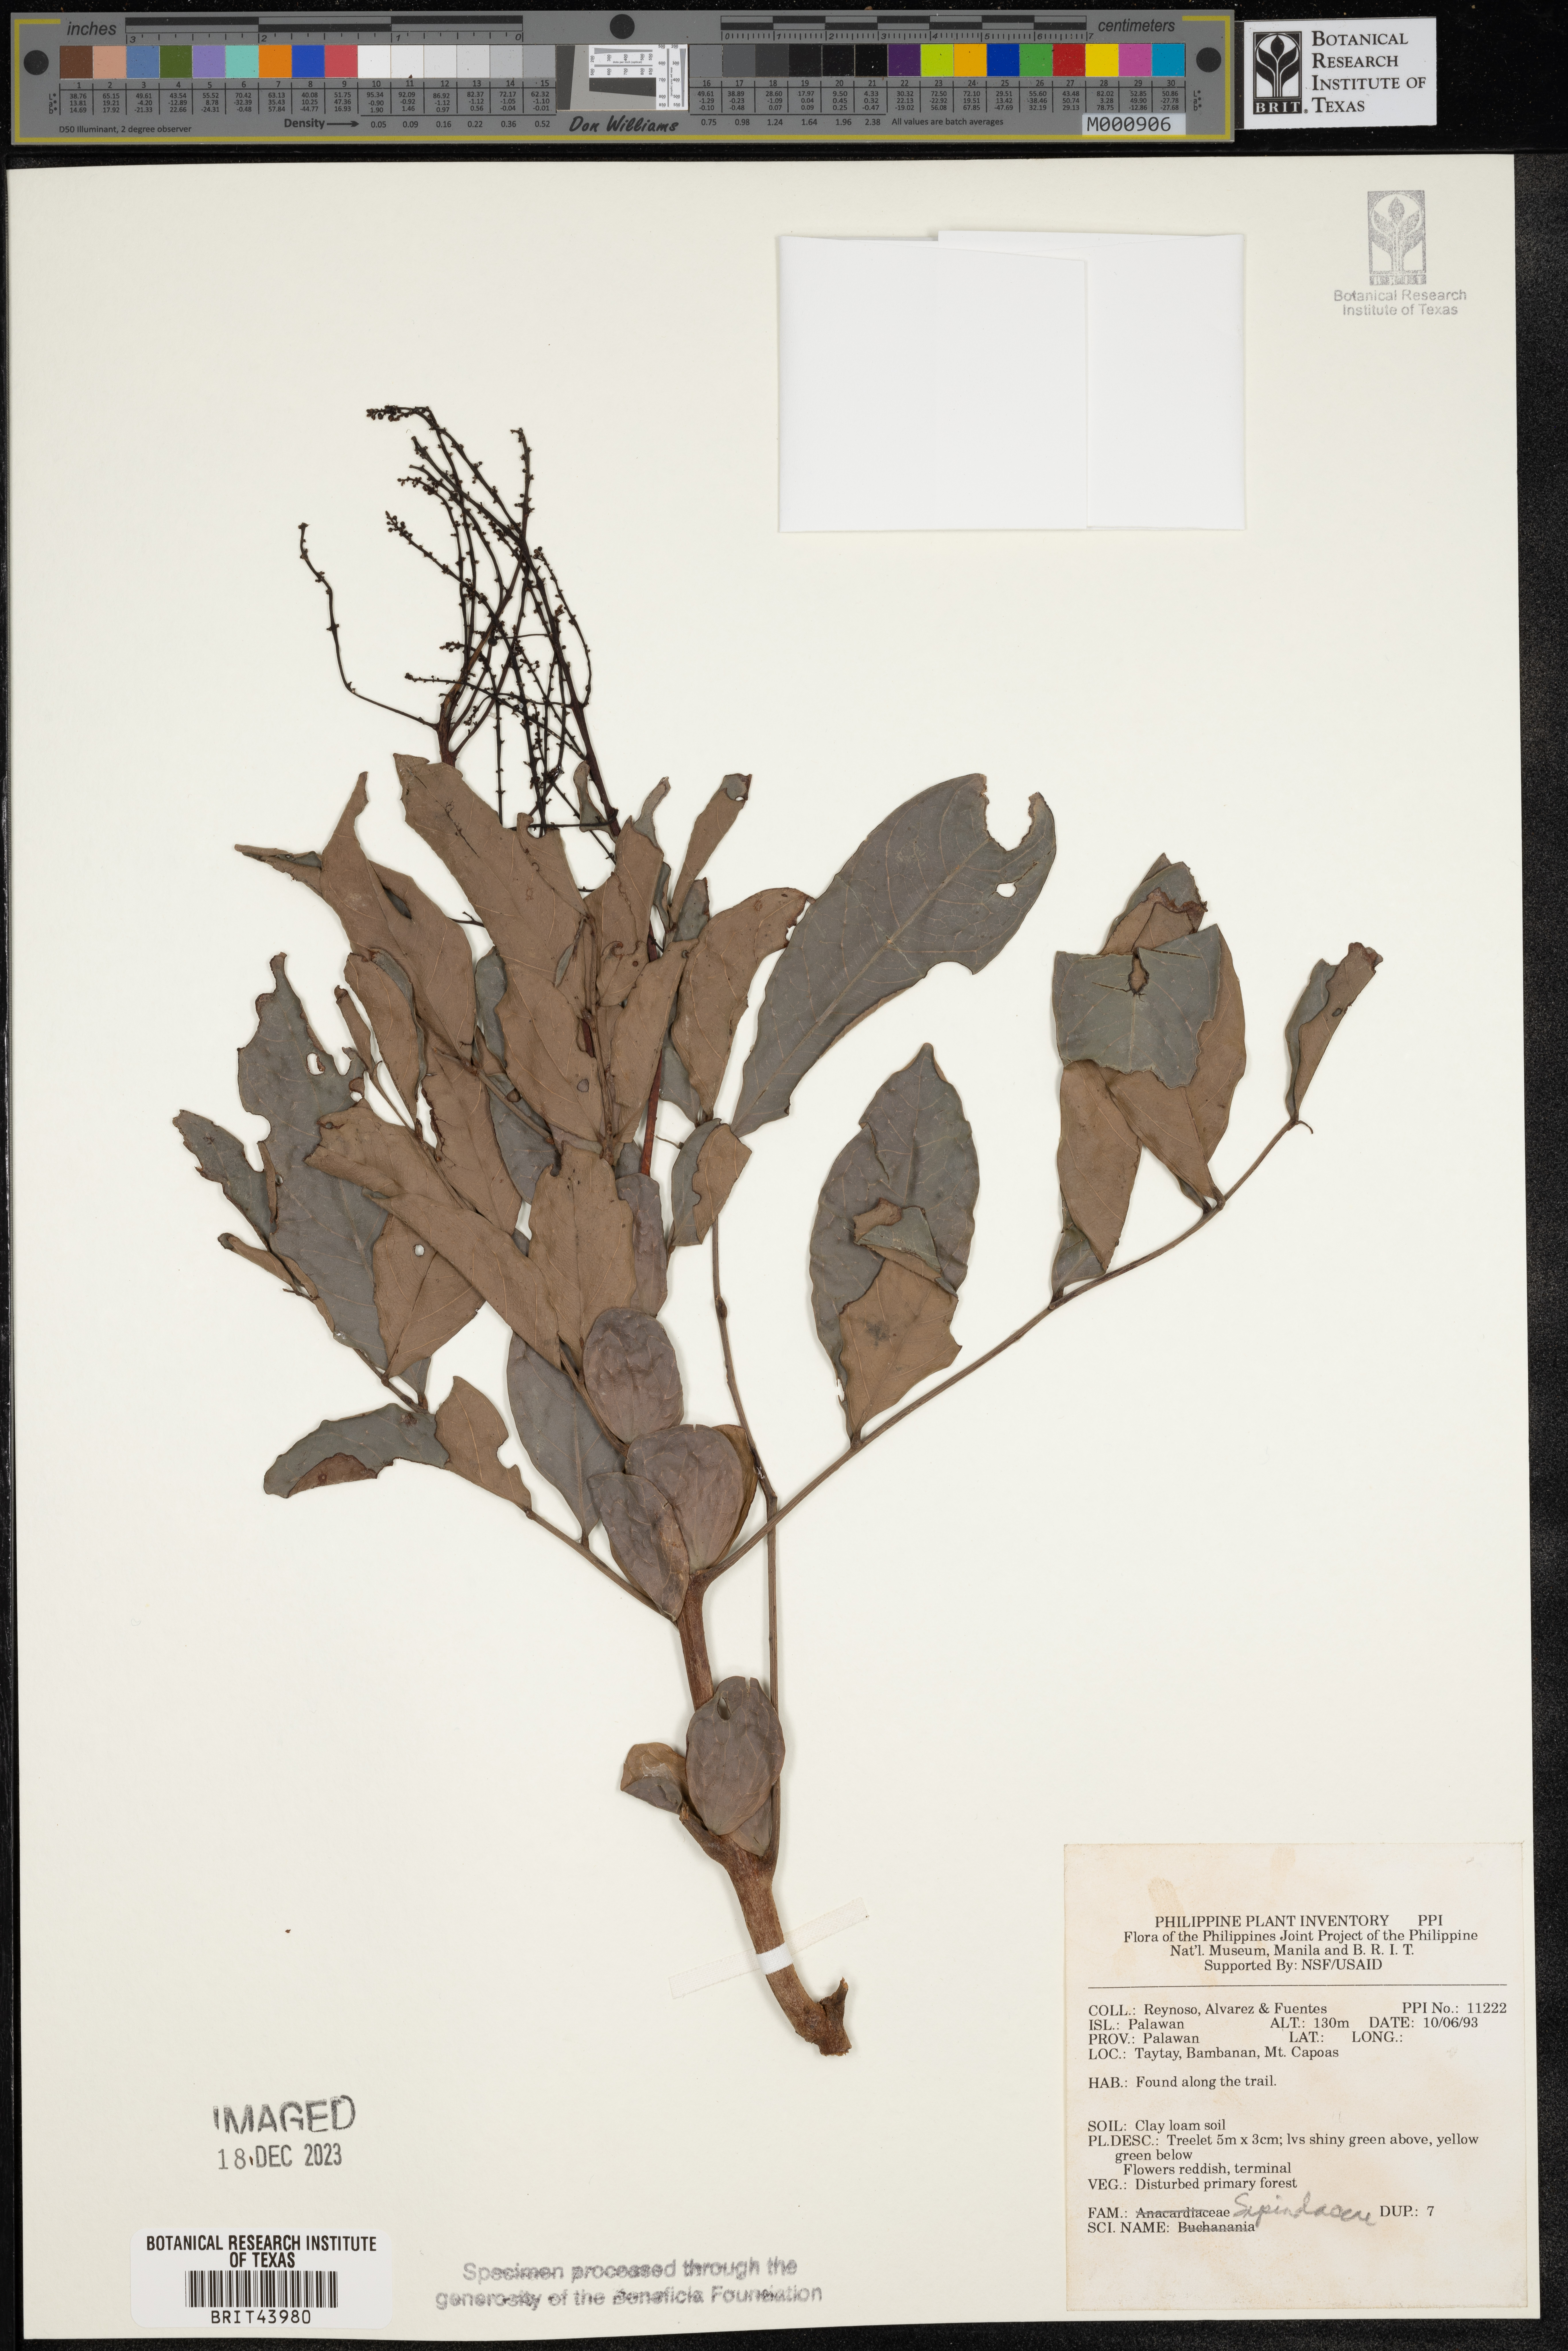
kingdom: Plantae
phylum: Tracheophyta
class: Magnoliopsida
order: Sapindales
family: Sapindaceae
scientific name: Sapindaceae
